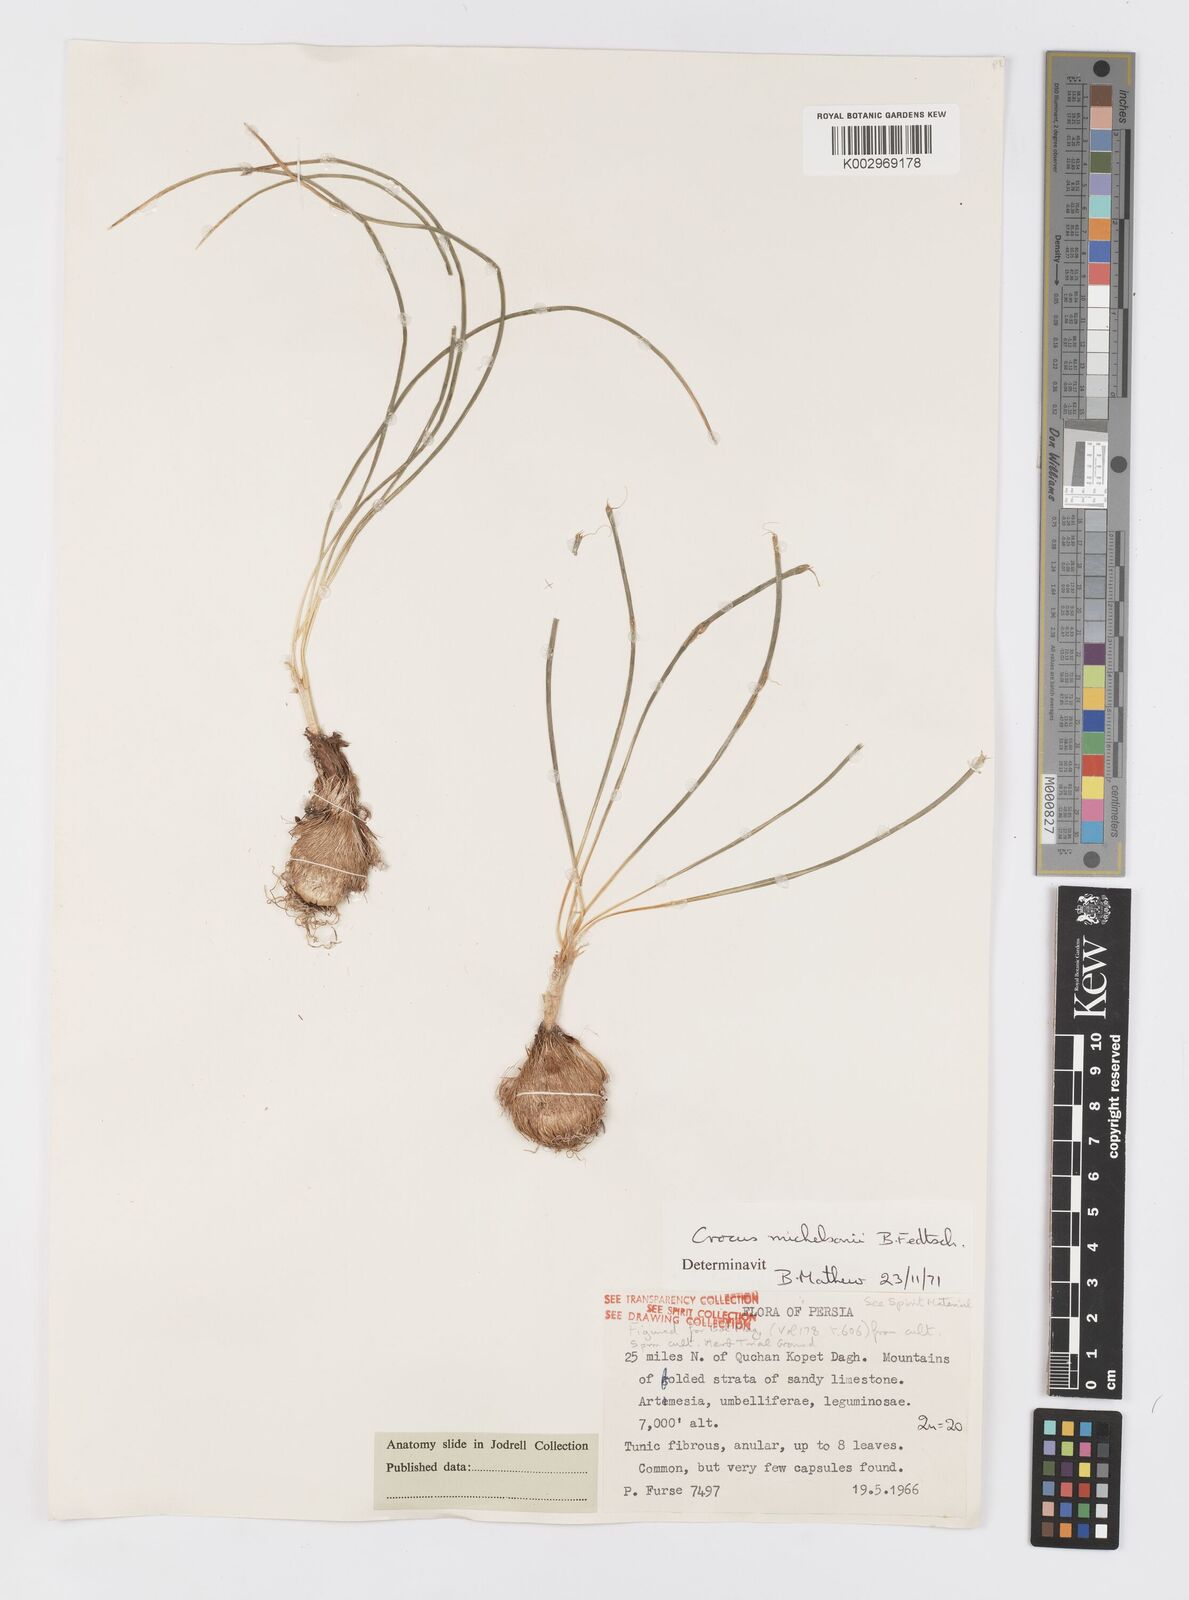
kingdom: Plantae
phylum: Tracheophyta
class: Liliopsida
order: Asparagales
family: Iridaceae
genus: Crocus
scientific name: Crocus michelsonii
